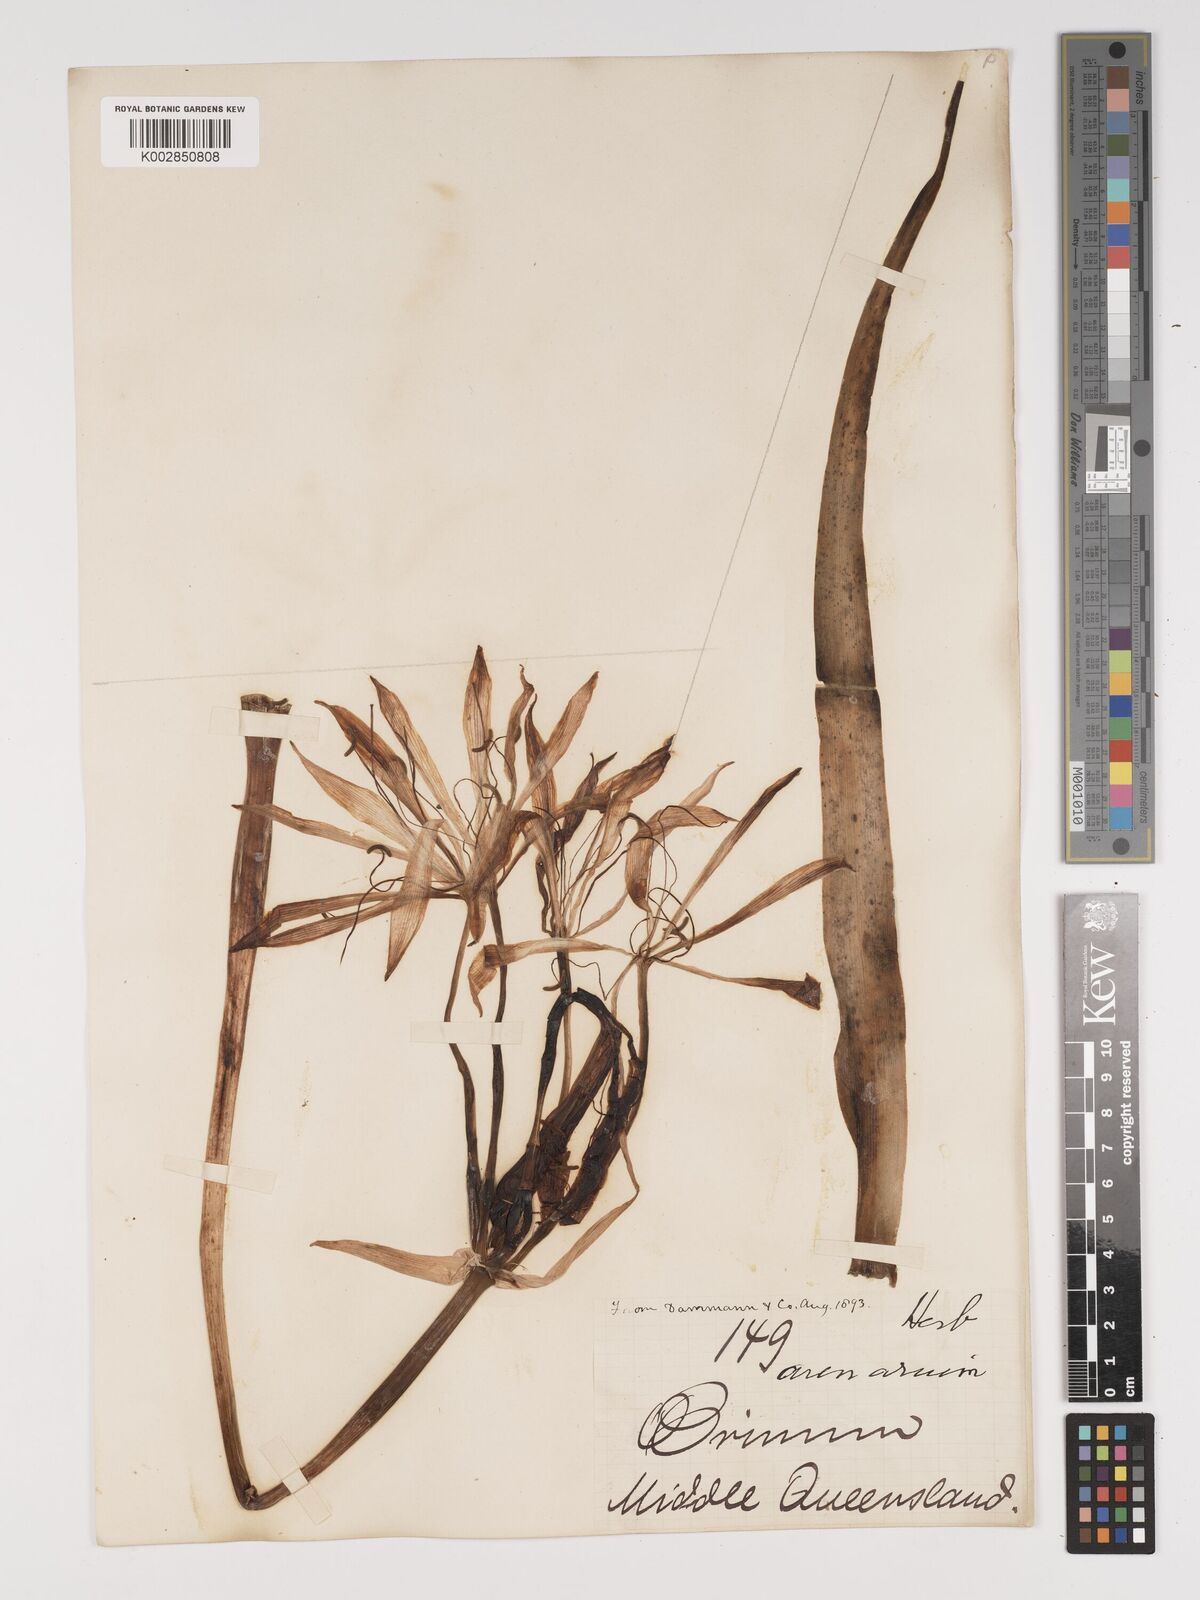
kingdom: Plantae
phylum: Tracheophyta
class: Liliopsida
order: Asparagales
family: Amaryllidaceae
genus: Crinum
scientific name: Crinum arenarium
